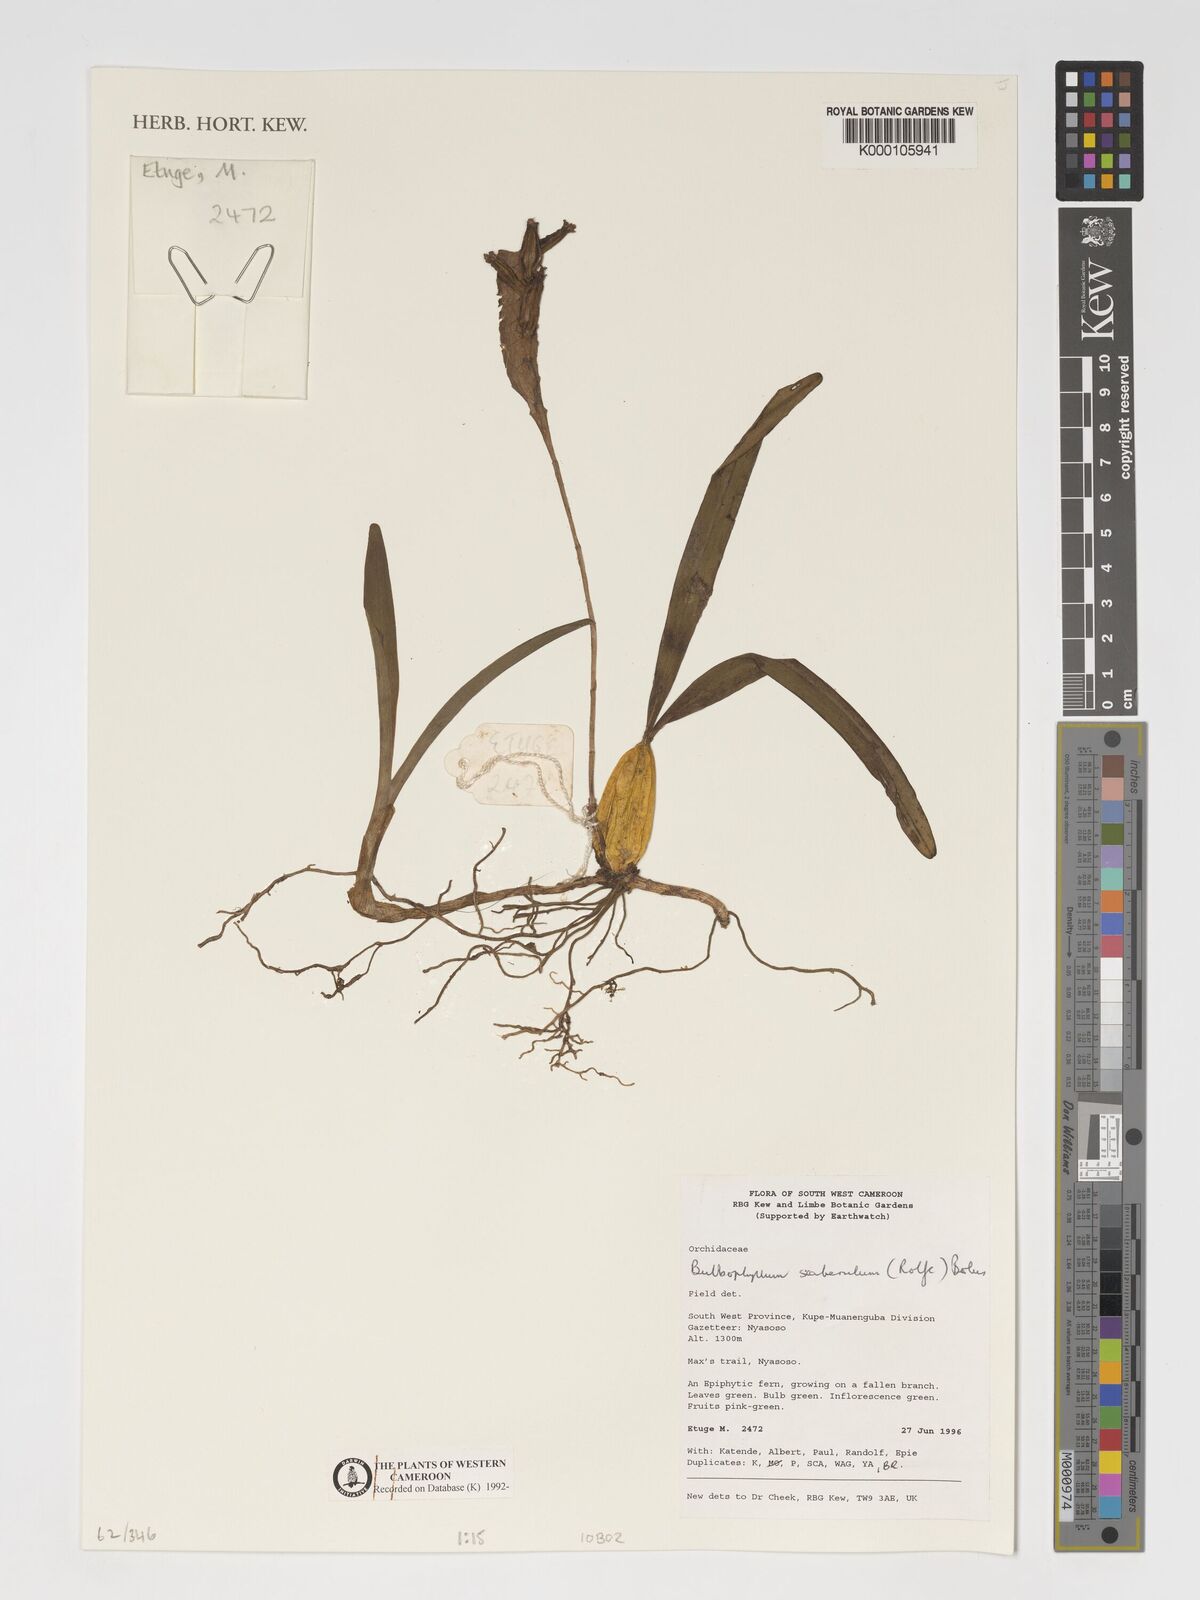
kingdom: Plantae
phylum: Tracheophyta
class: Liliopsida
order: Asparagales
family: Orchidaceae
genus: Bulbophyllum
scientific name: Bulbophyllum scaberulum
